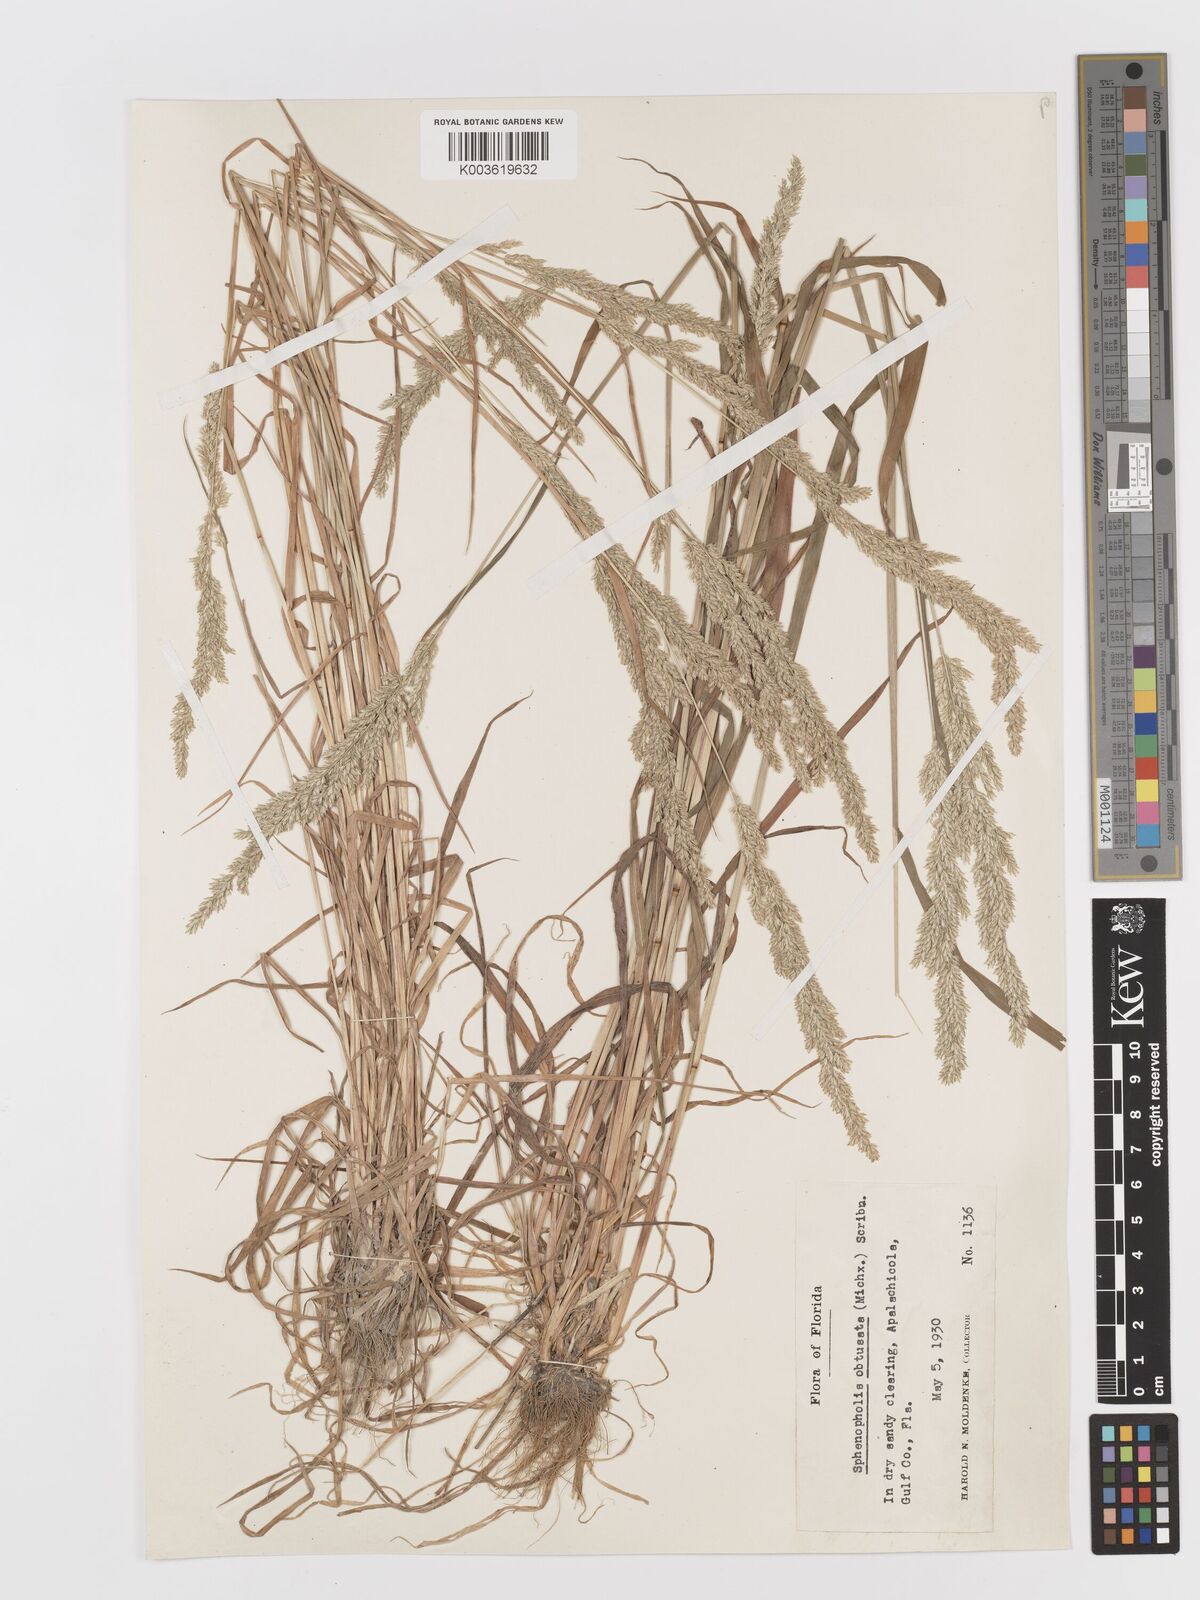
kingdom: Plantae
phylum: Tracheophyta
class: Liliopsida
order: Poales
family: Poaceae
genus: Sphenopholis
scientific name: Sphenopholis obtusata
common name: Prairie grass
